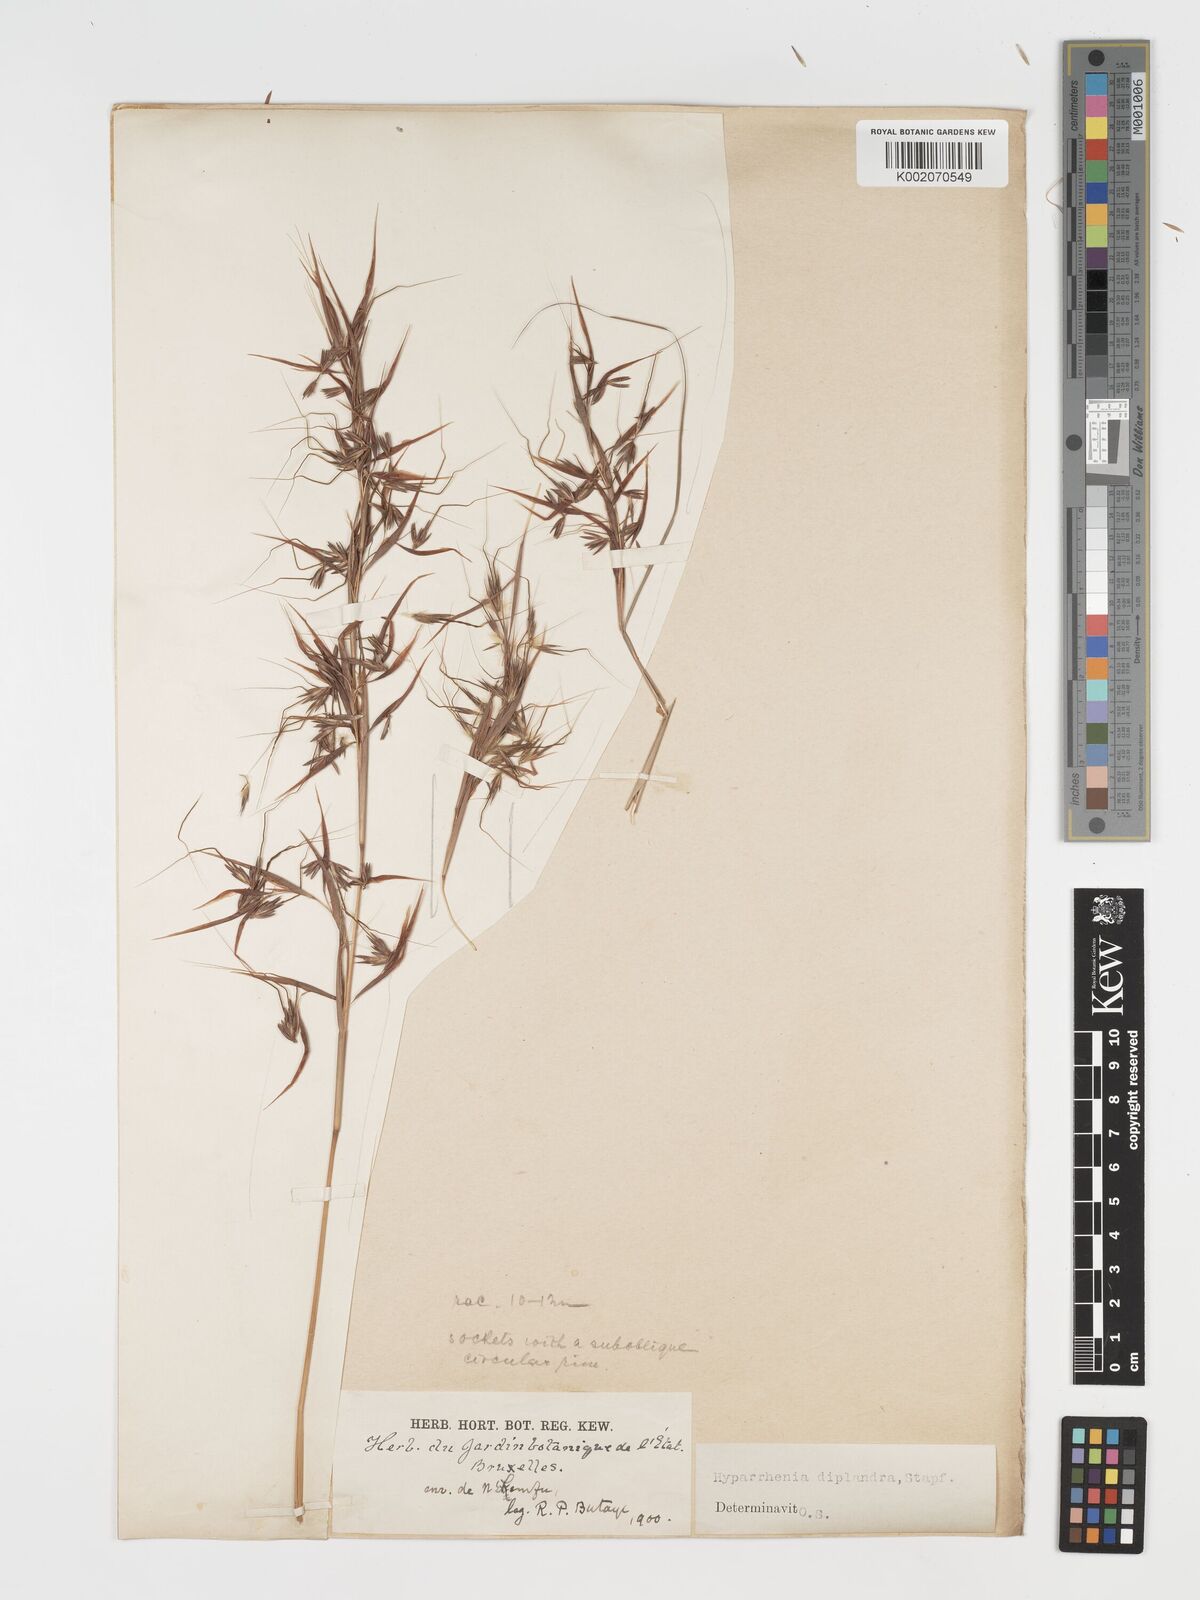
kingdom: Plantae
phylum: Tracheophyta
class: Liliopsida
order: Poales
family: Poaceae
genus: Hyparrhenia
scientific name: Hyparrhenia diplandra
